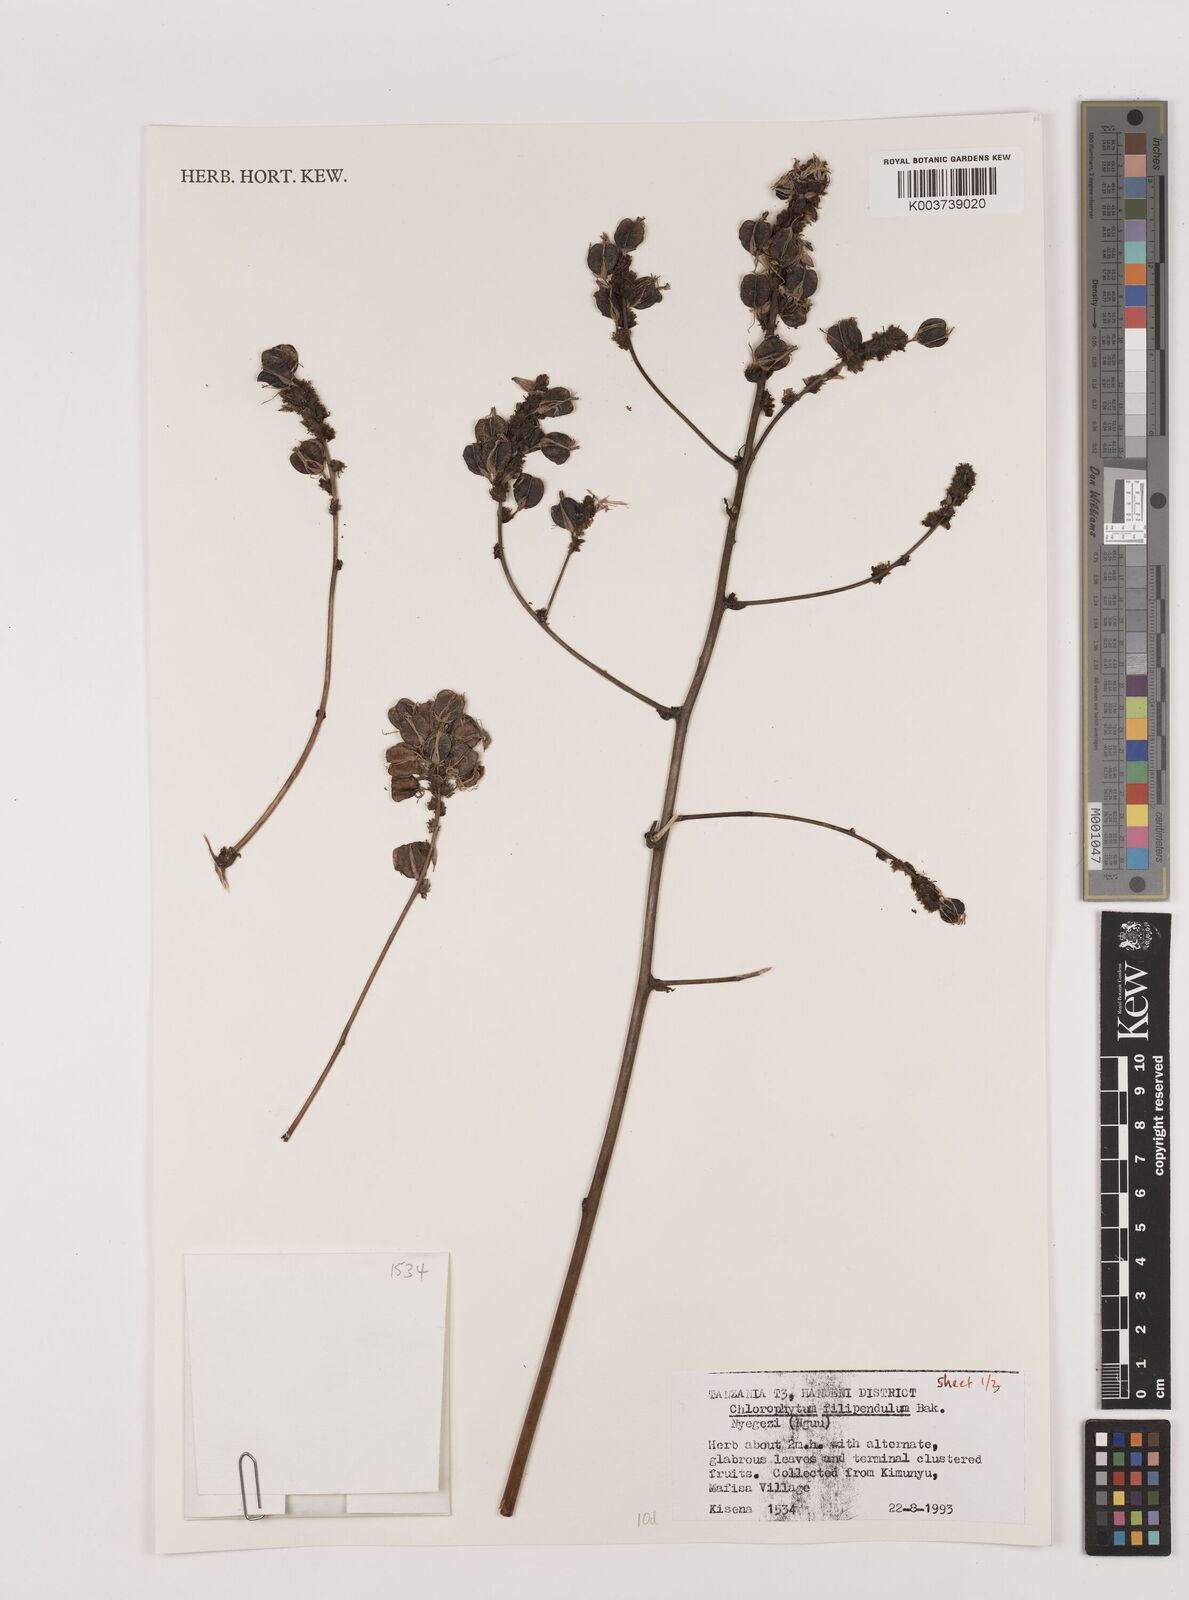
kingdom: Plantae
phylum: Tracheophyta
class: Liliopsida
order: Asparagales
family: Asparagaceae
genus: Chlorophytum
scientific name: Chlorophytum filipendulum
